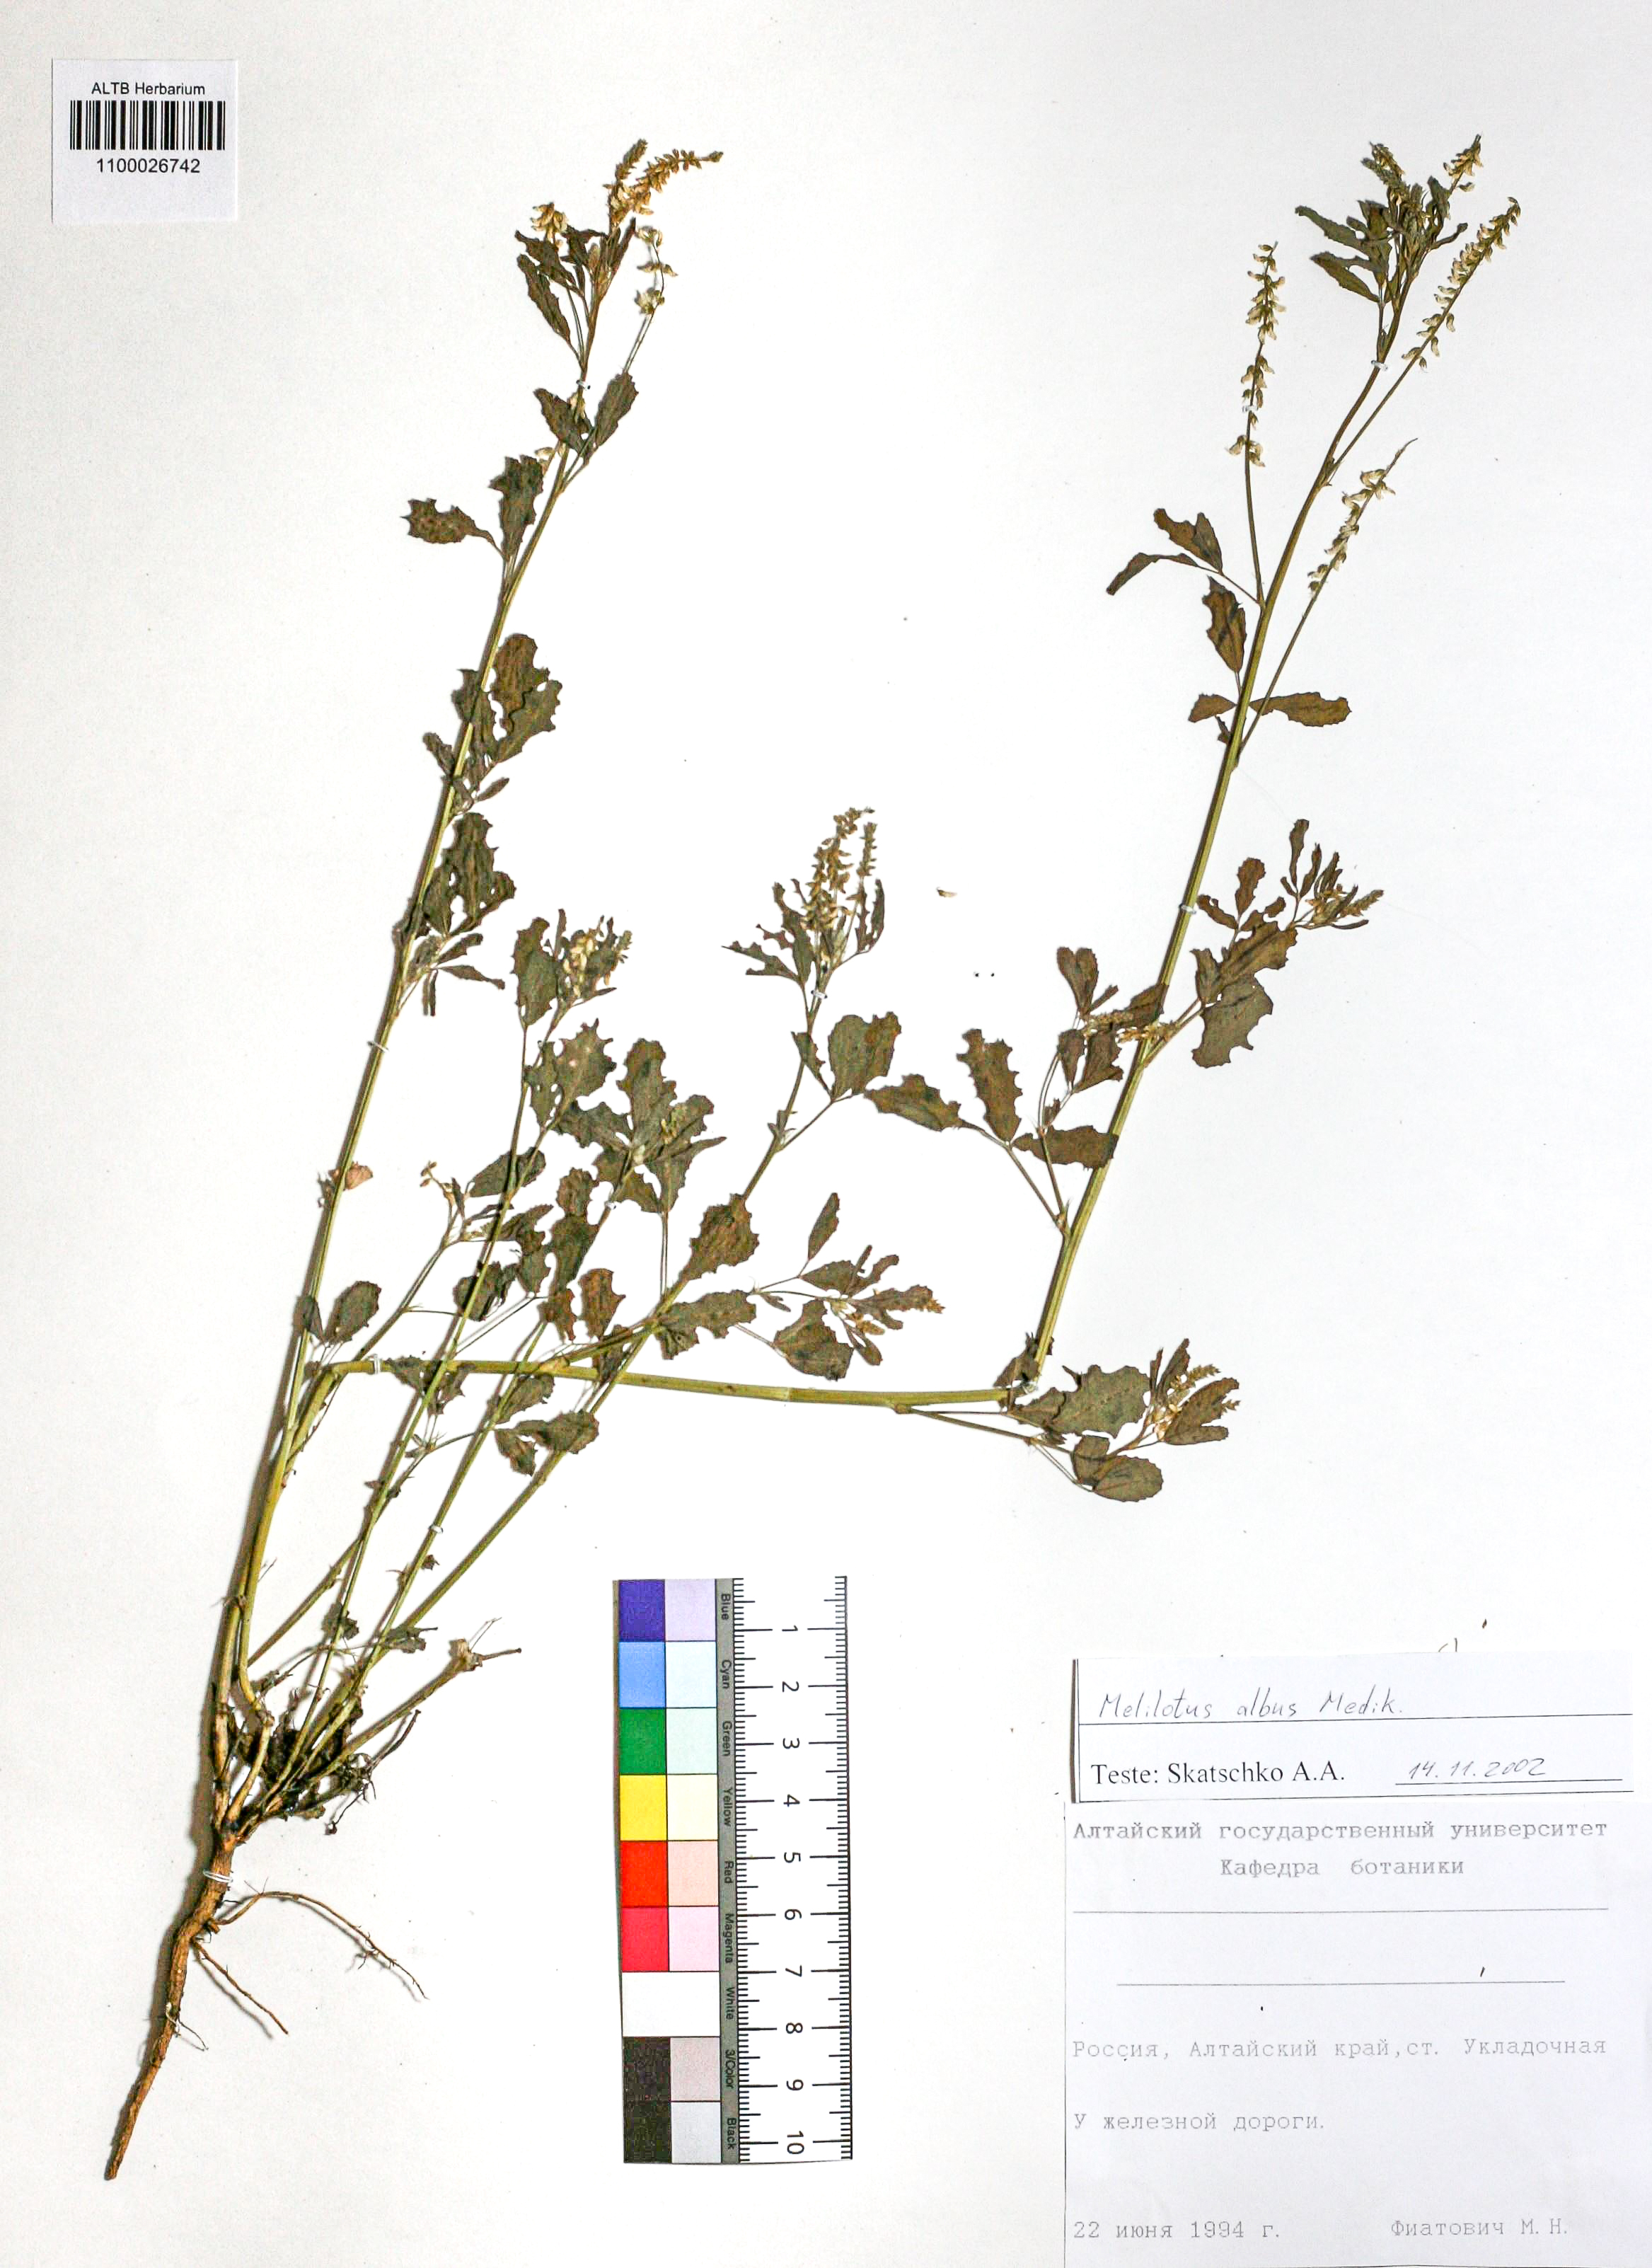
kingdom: Plantae
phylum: Tracheophyta
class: Magnoliopsida
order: Fabales
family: Fabaceae
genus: Melilotus
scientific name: Melilotus albus
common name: White melilot
